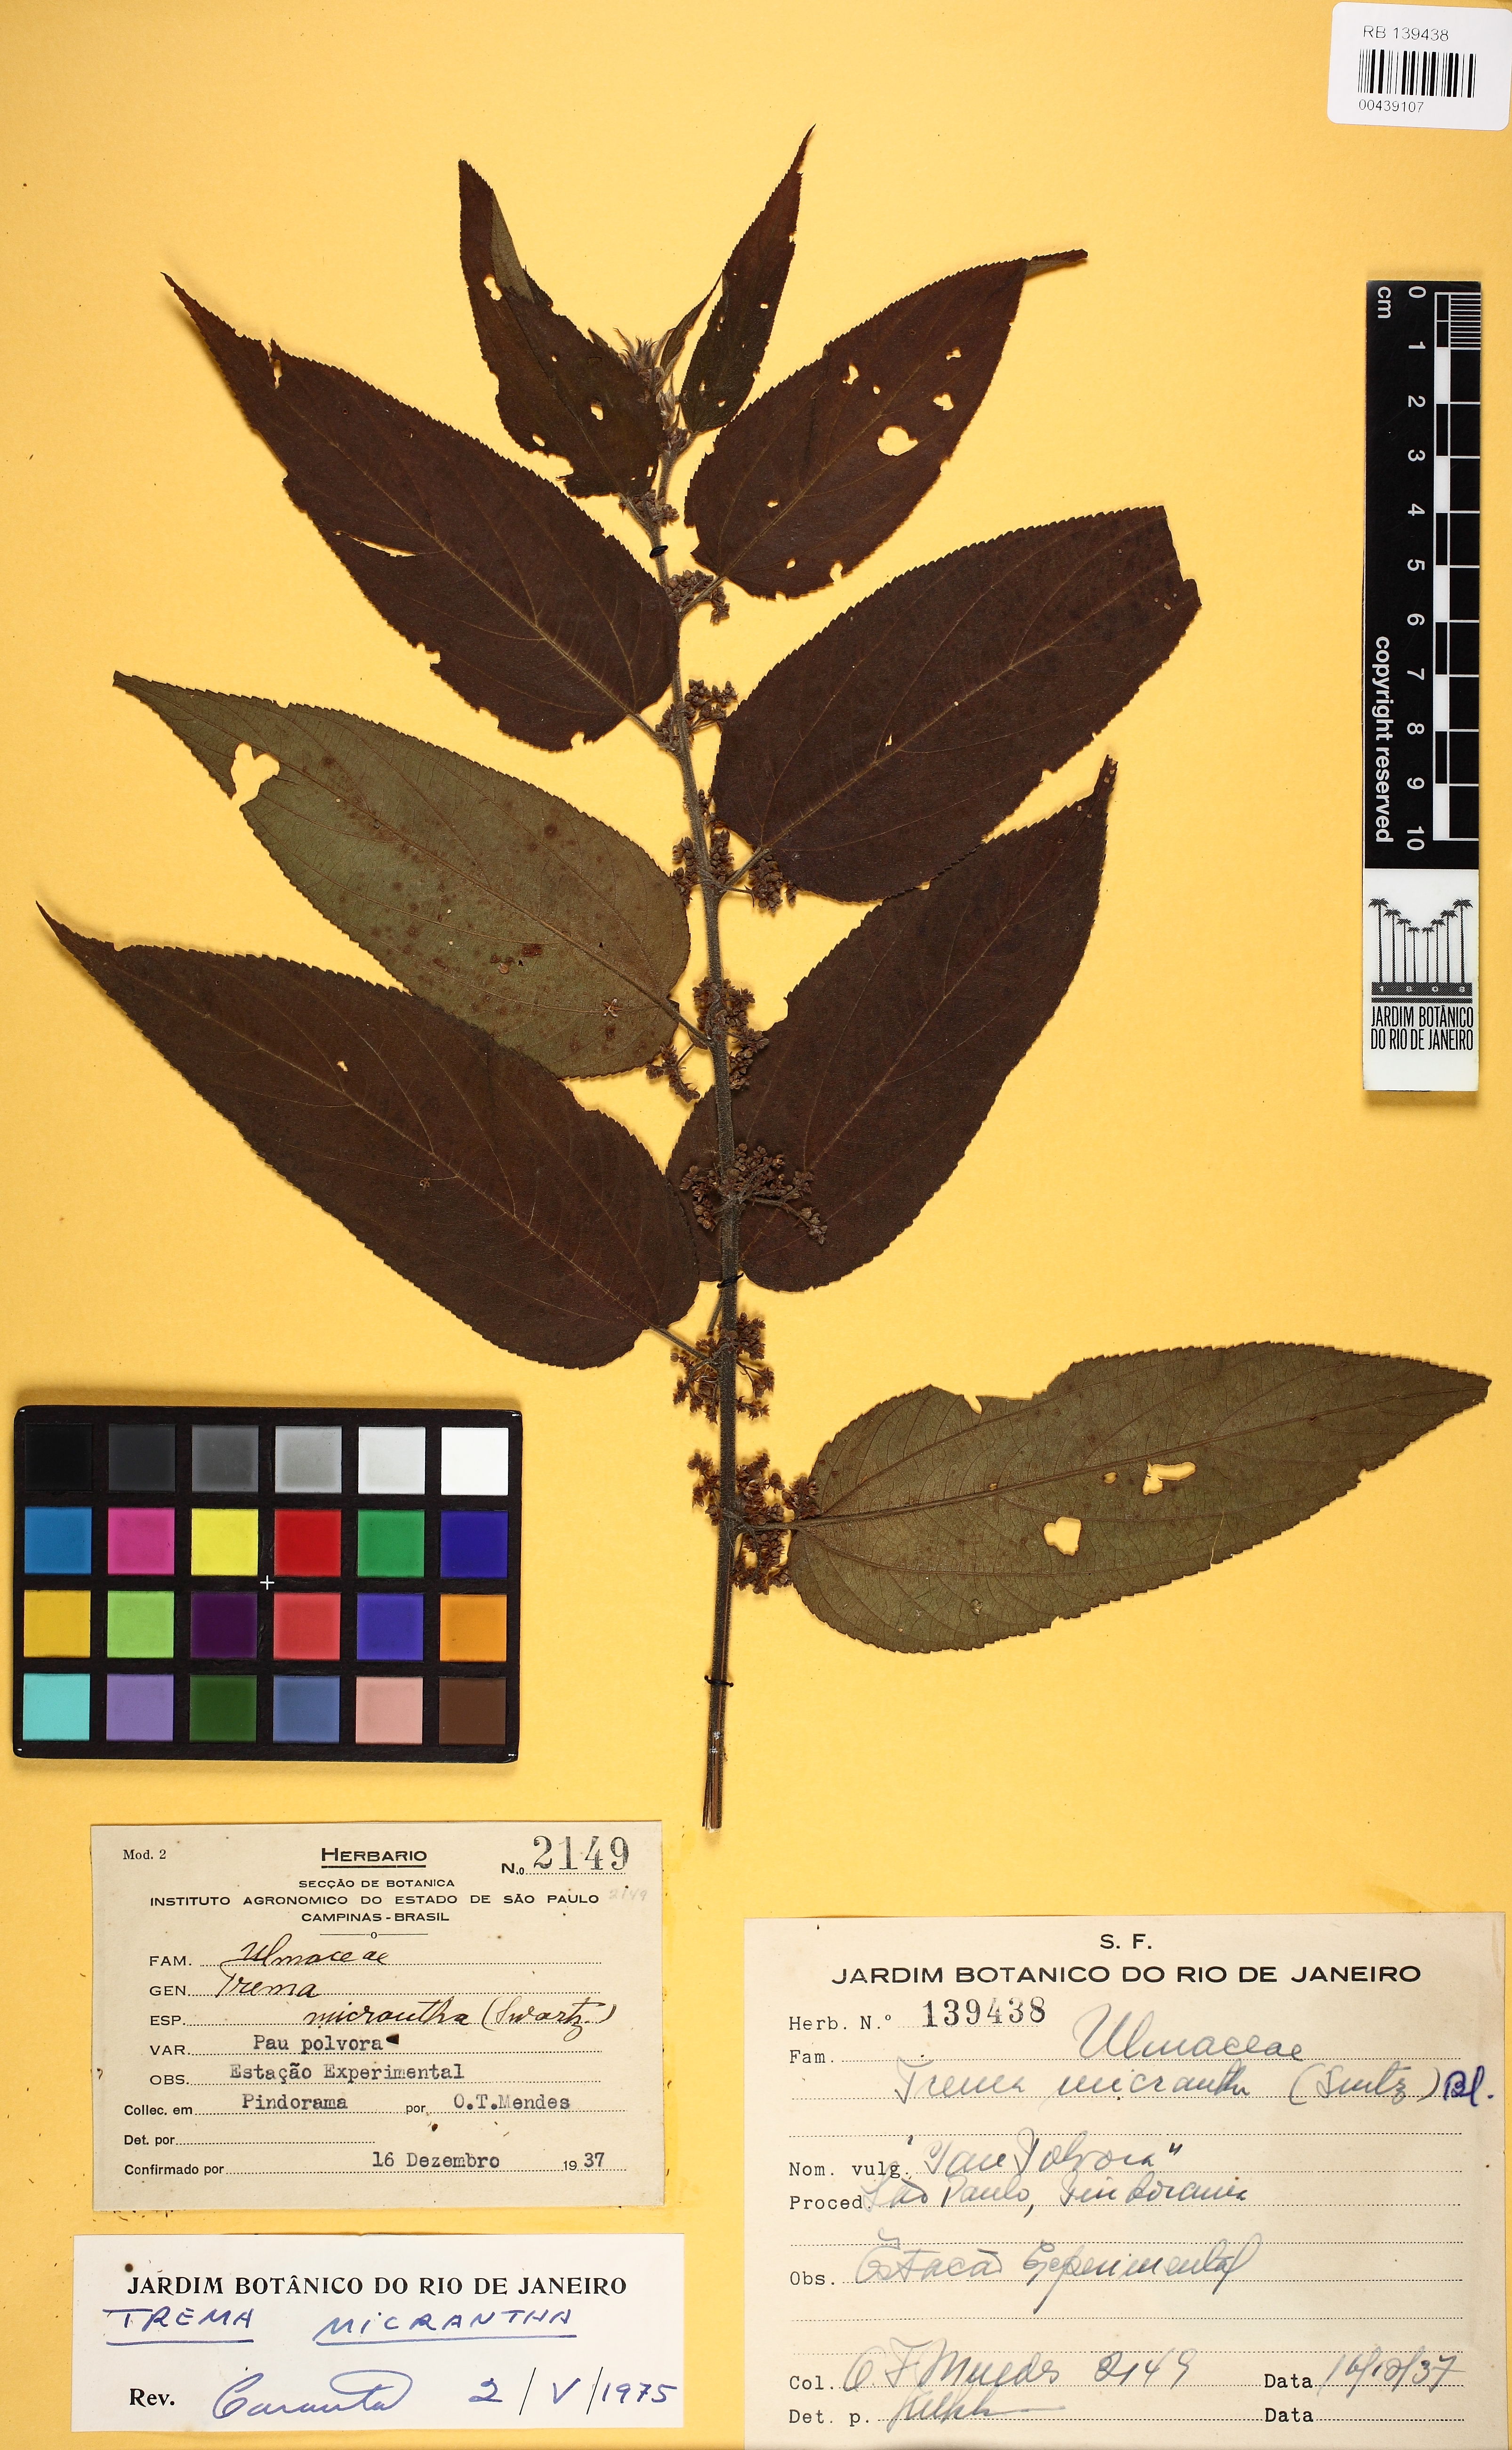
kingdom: Plantae
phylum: Tracheophyta
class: Magnoliopsida
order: Rosales
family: Cannabaceae
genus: Trema
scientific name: Trema micranthum
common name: Jamaican nettletree
